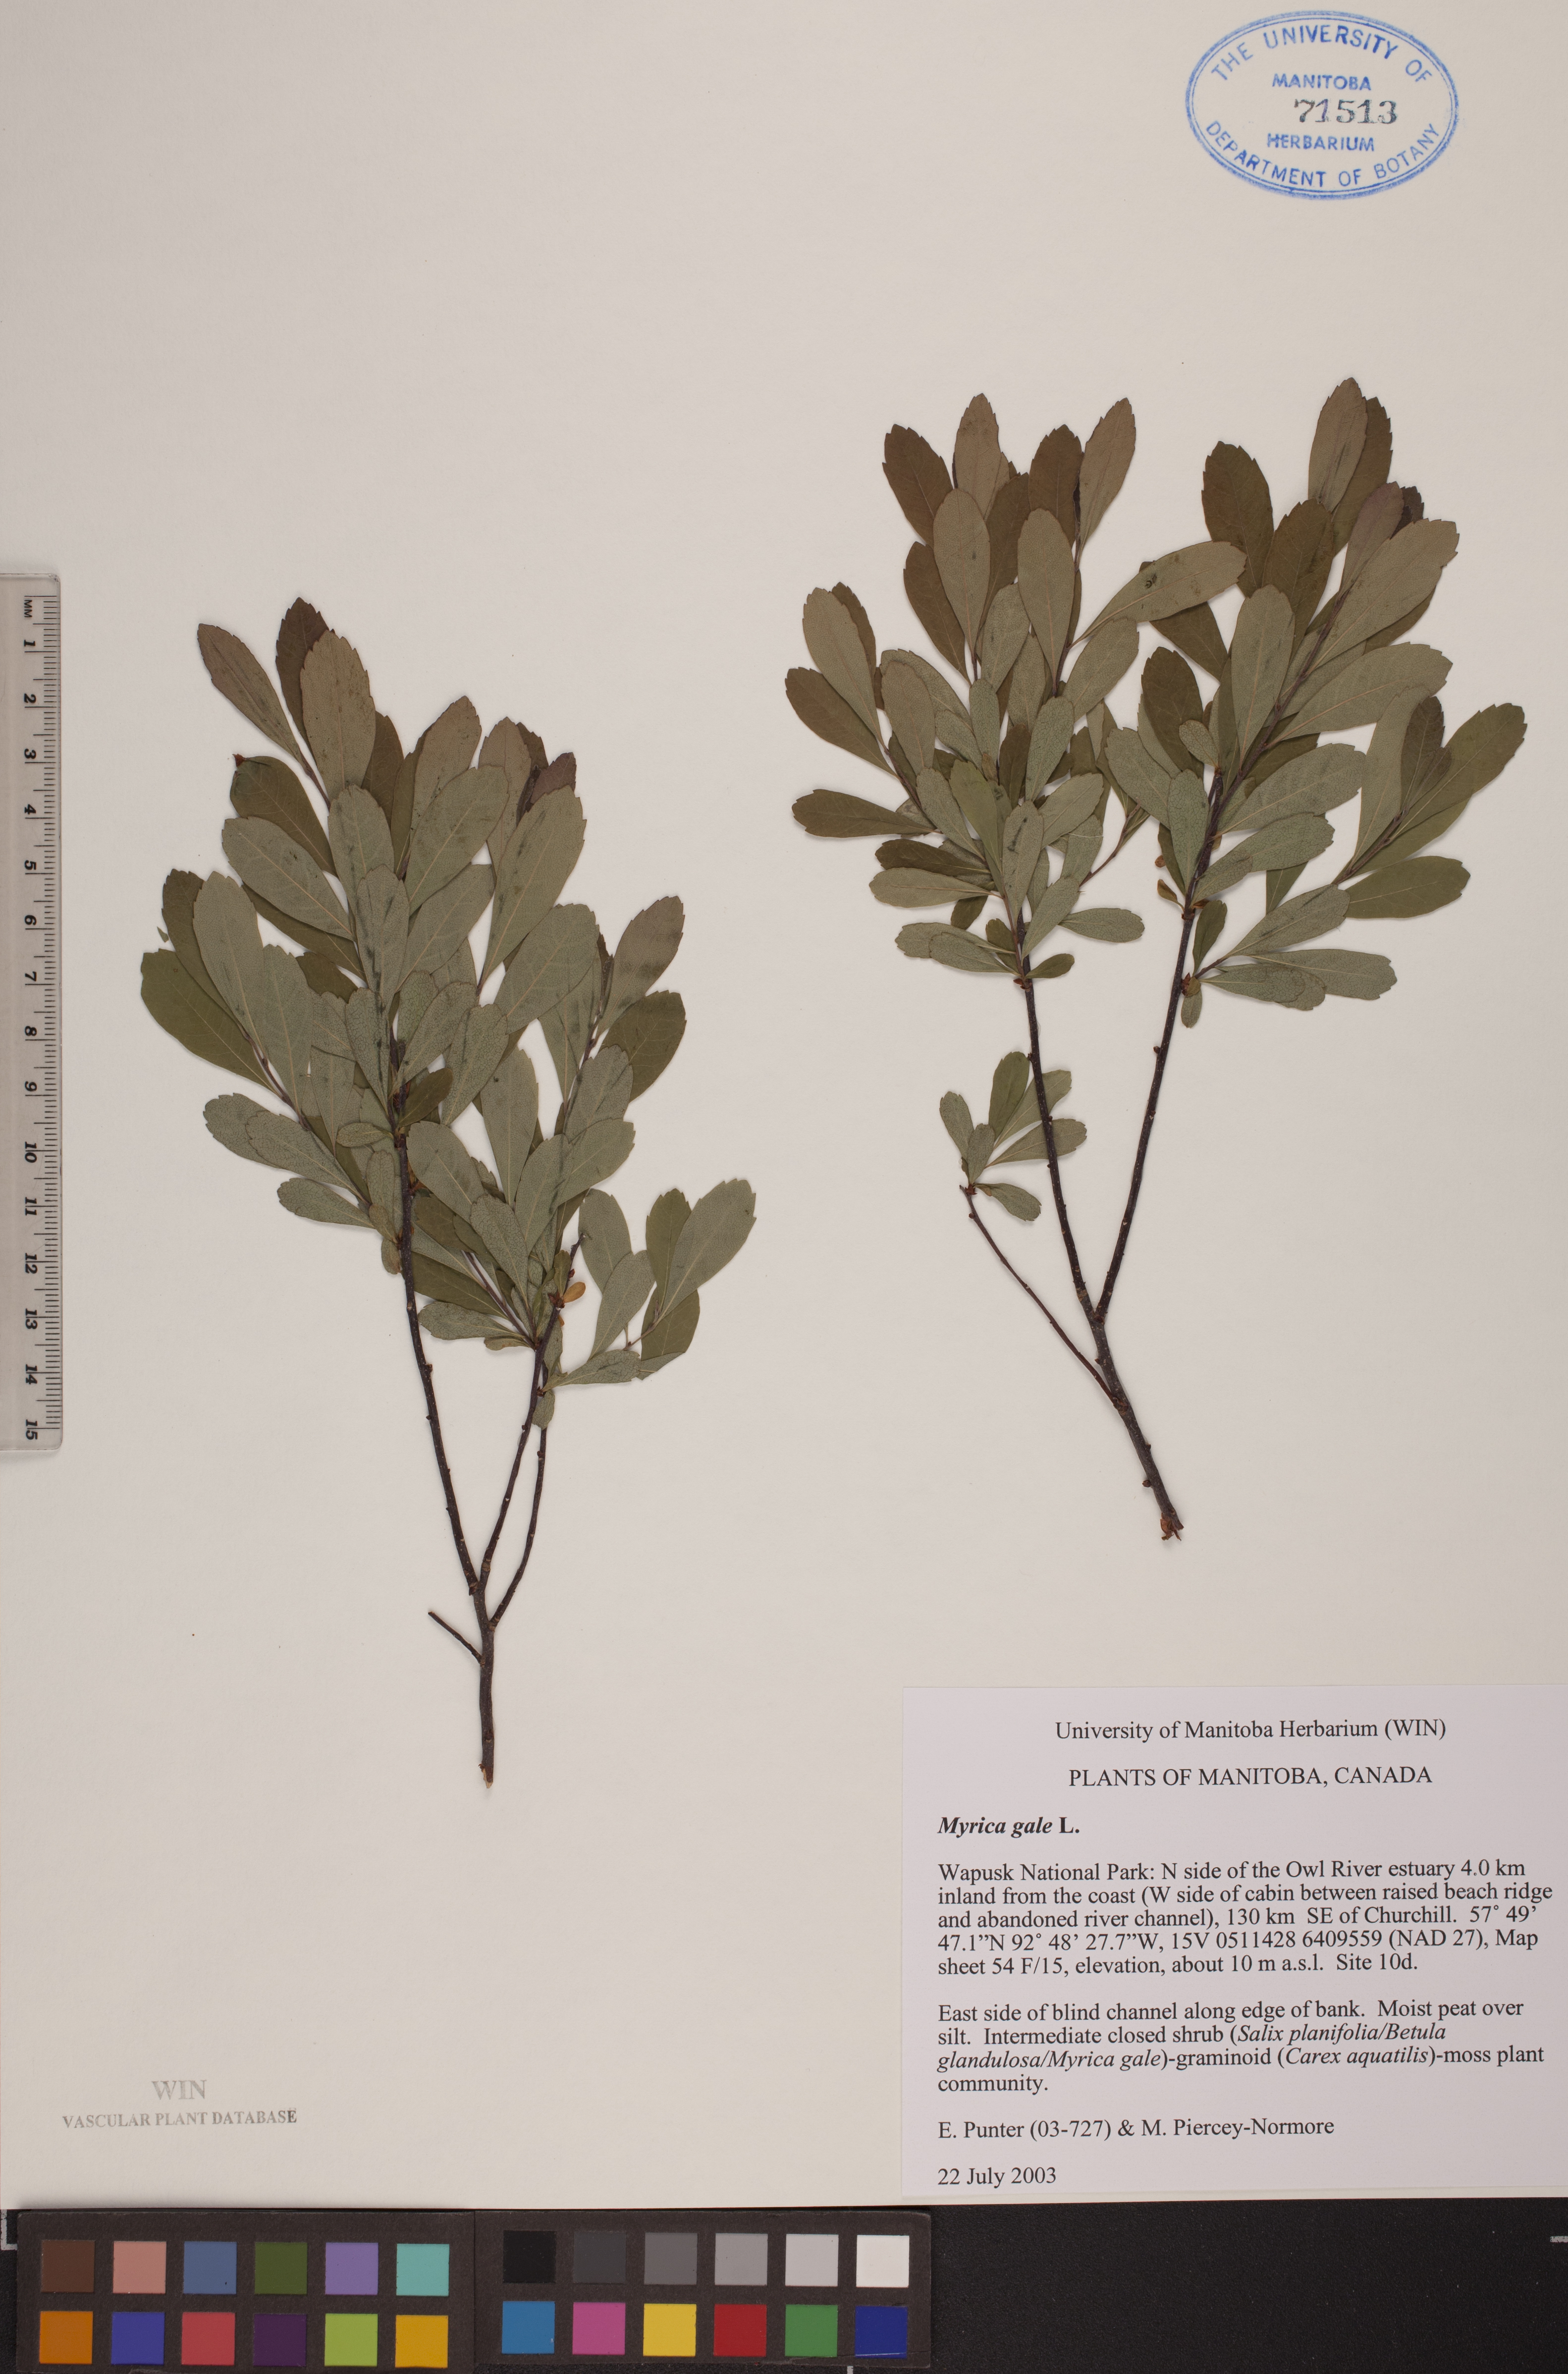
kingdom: Plantae
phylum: Tracheophyta
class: Magnoliopsida
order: Fagales
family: Myricaceae
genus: Myrica
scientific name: Myrica gale
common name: Sweet gale
